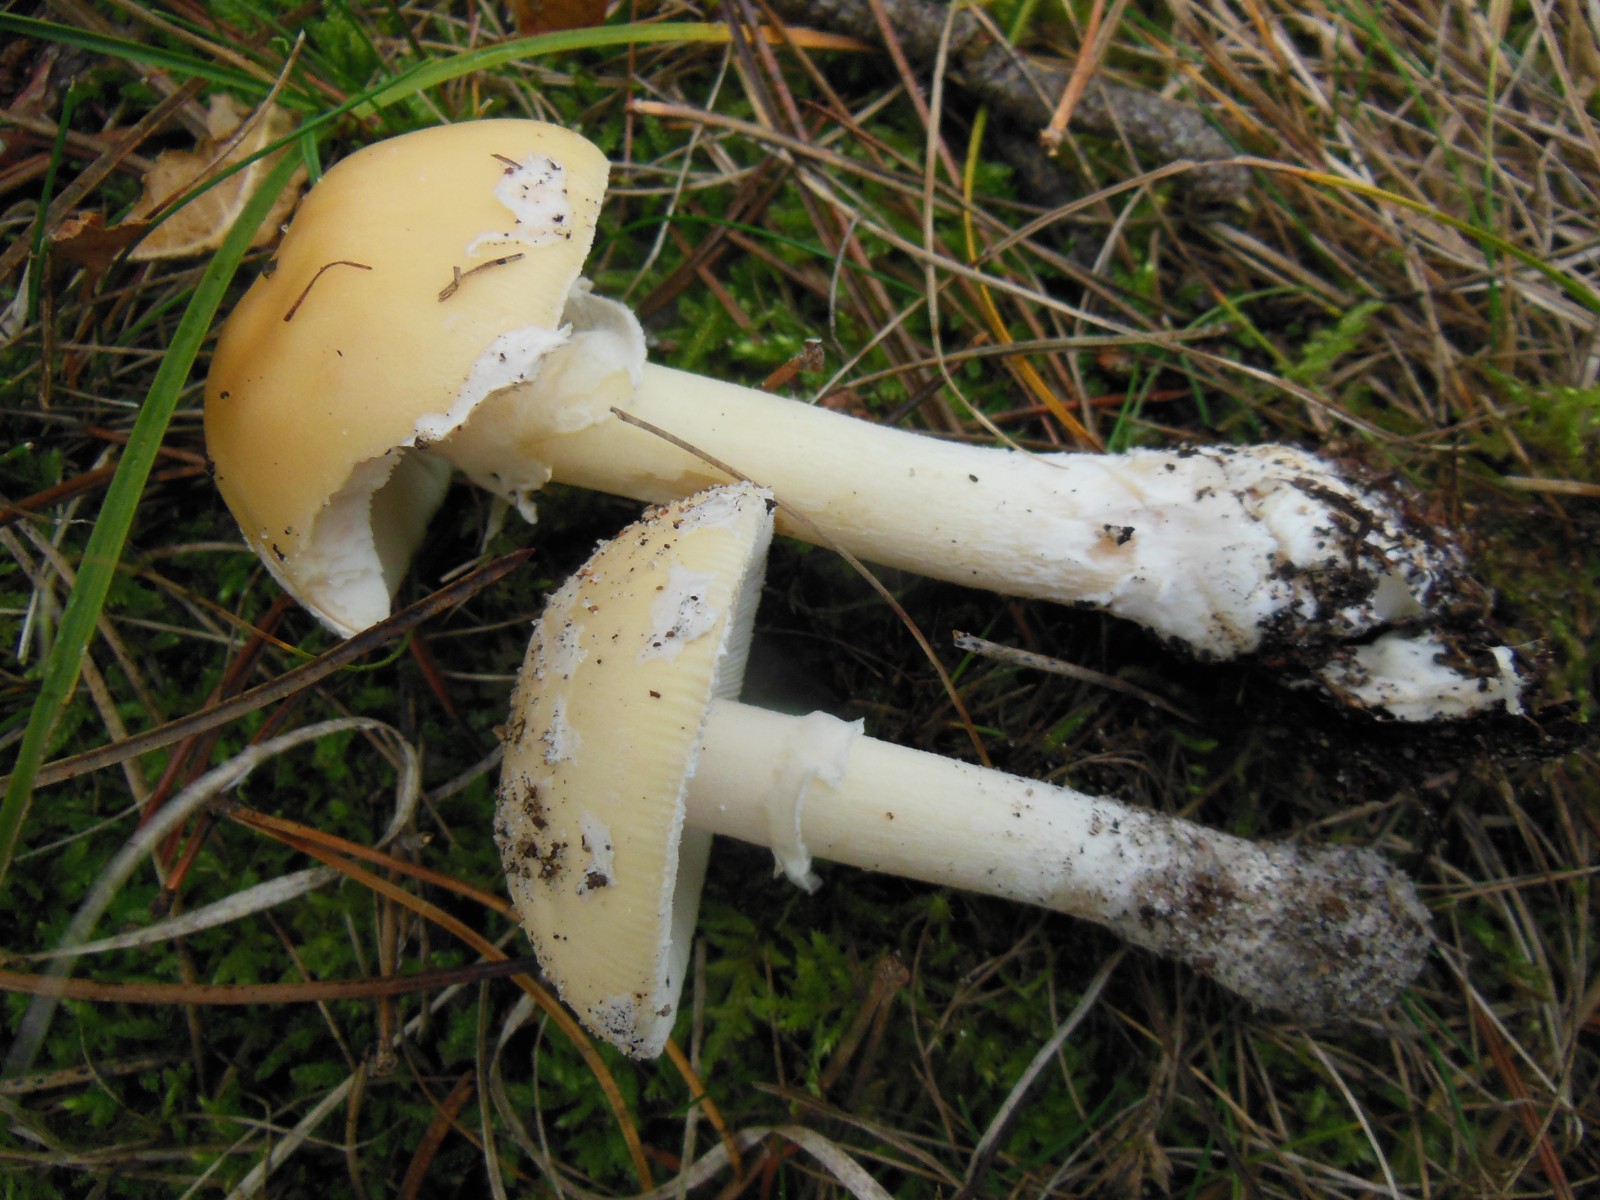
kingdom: Fungi
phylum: Basidiomycota
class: Agaricomycetes
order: Agaricales
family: Amanitaceae
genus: Amanita
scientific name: Amanita gemmata
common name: okkergul fluesvamp
